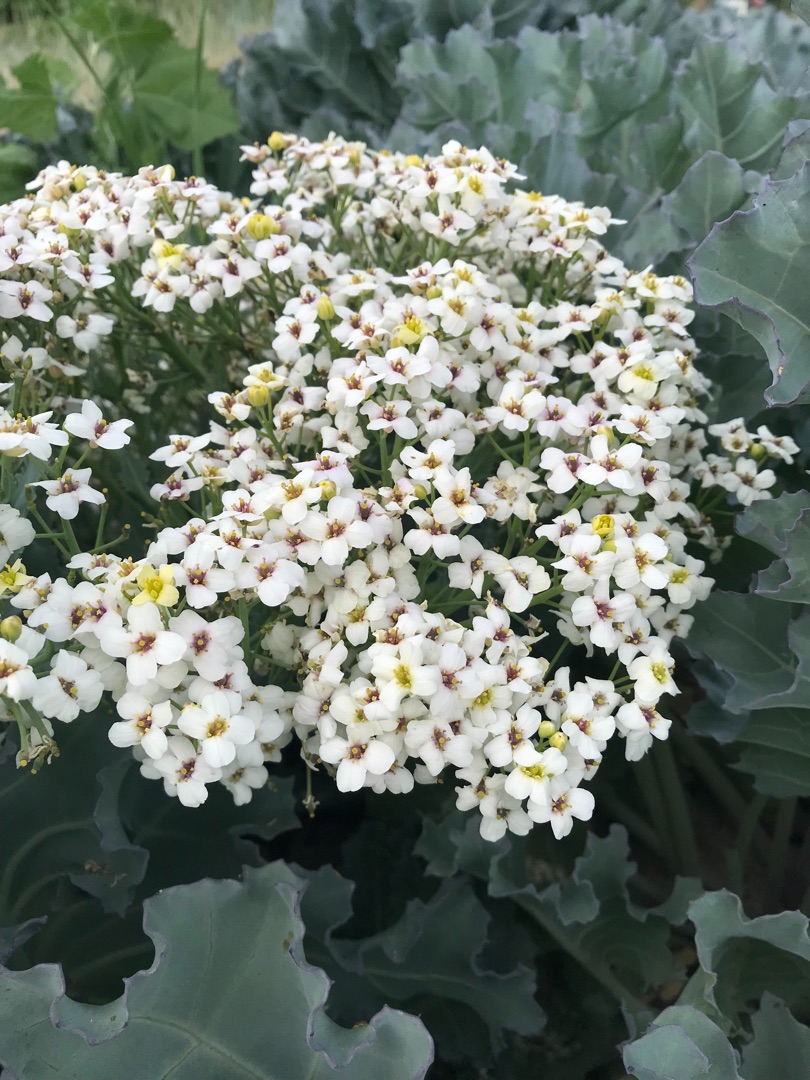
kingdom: Plantae
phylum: Tracheophyta
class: Magnoliopsida
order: Brassicales
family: Brassicaceae
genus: Crambe
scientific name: Crambe maritima
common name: Strandkål
